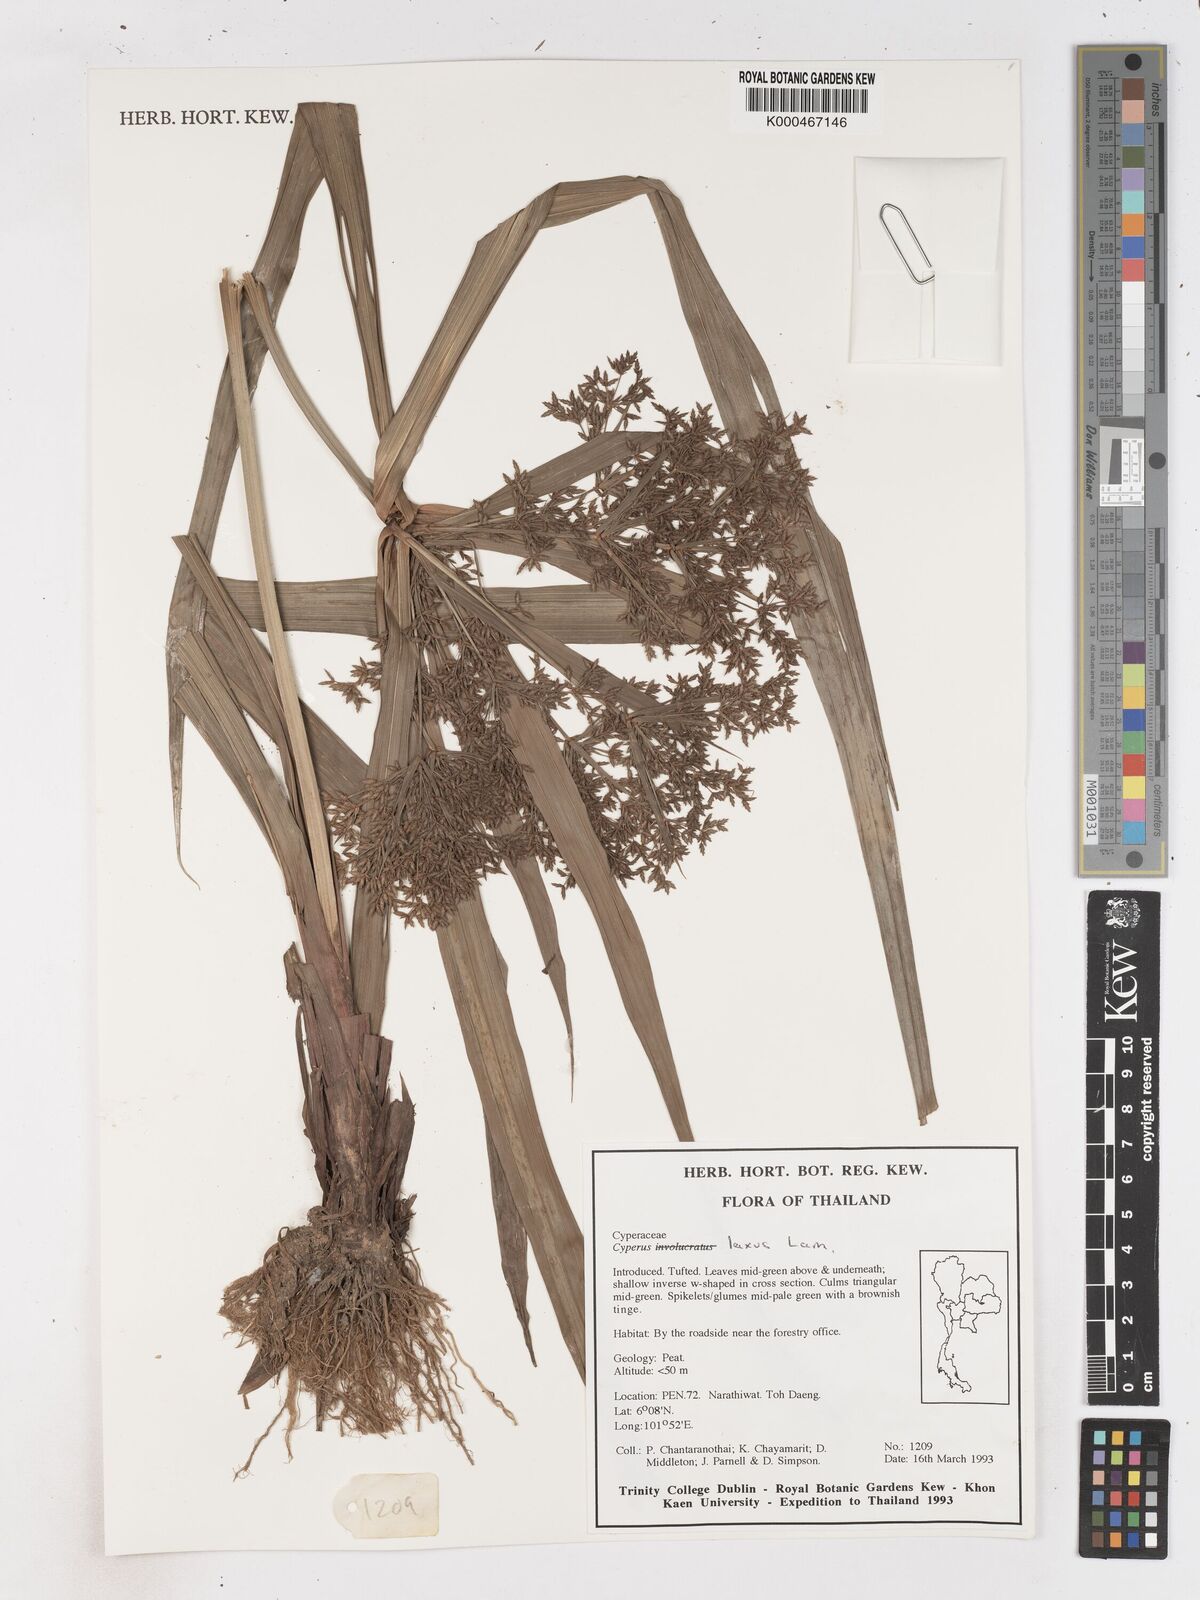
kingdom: Plantae
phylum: Tracheophyta
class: Liliopsida
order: Poales
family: Cyperaceae
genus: Cyperus
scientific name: Cyperus diffusus
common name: Dwarf umbrella grass
